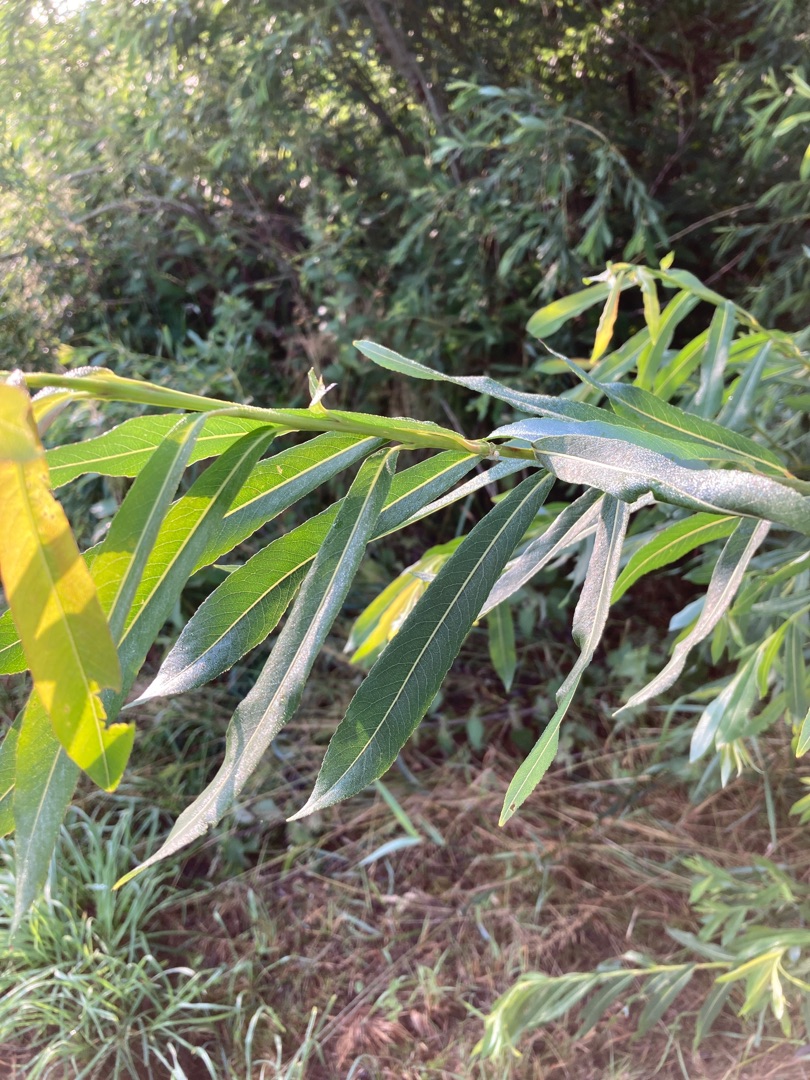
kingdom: Plantae
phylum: Tracheophyta
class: Magnoliopsida
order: Malpighiales
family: Salicaceae
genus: Salix
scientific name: Salix purpurea
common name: Purpur-pil
